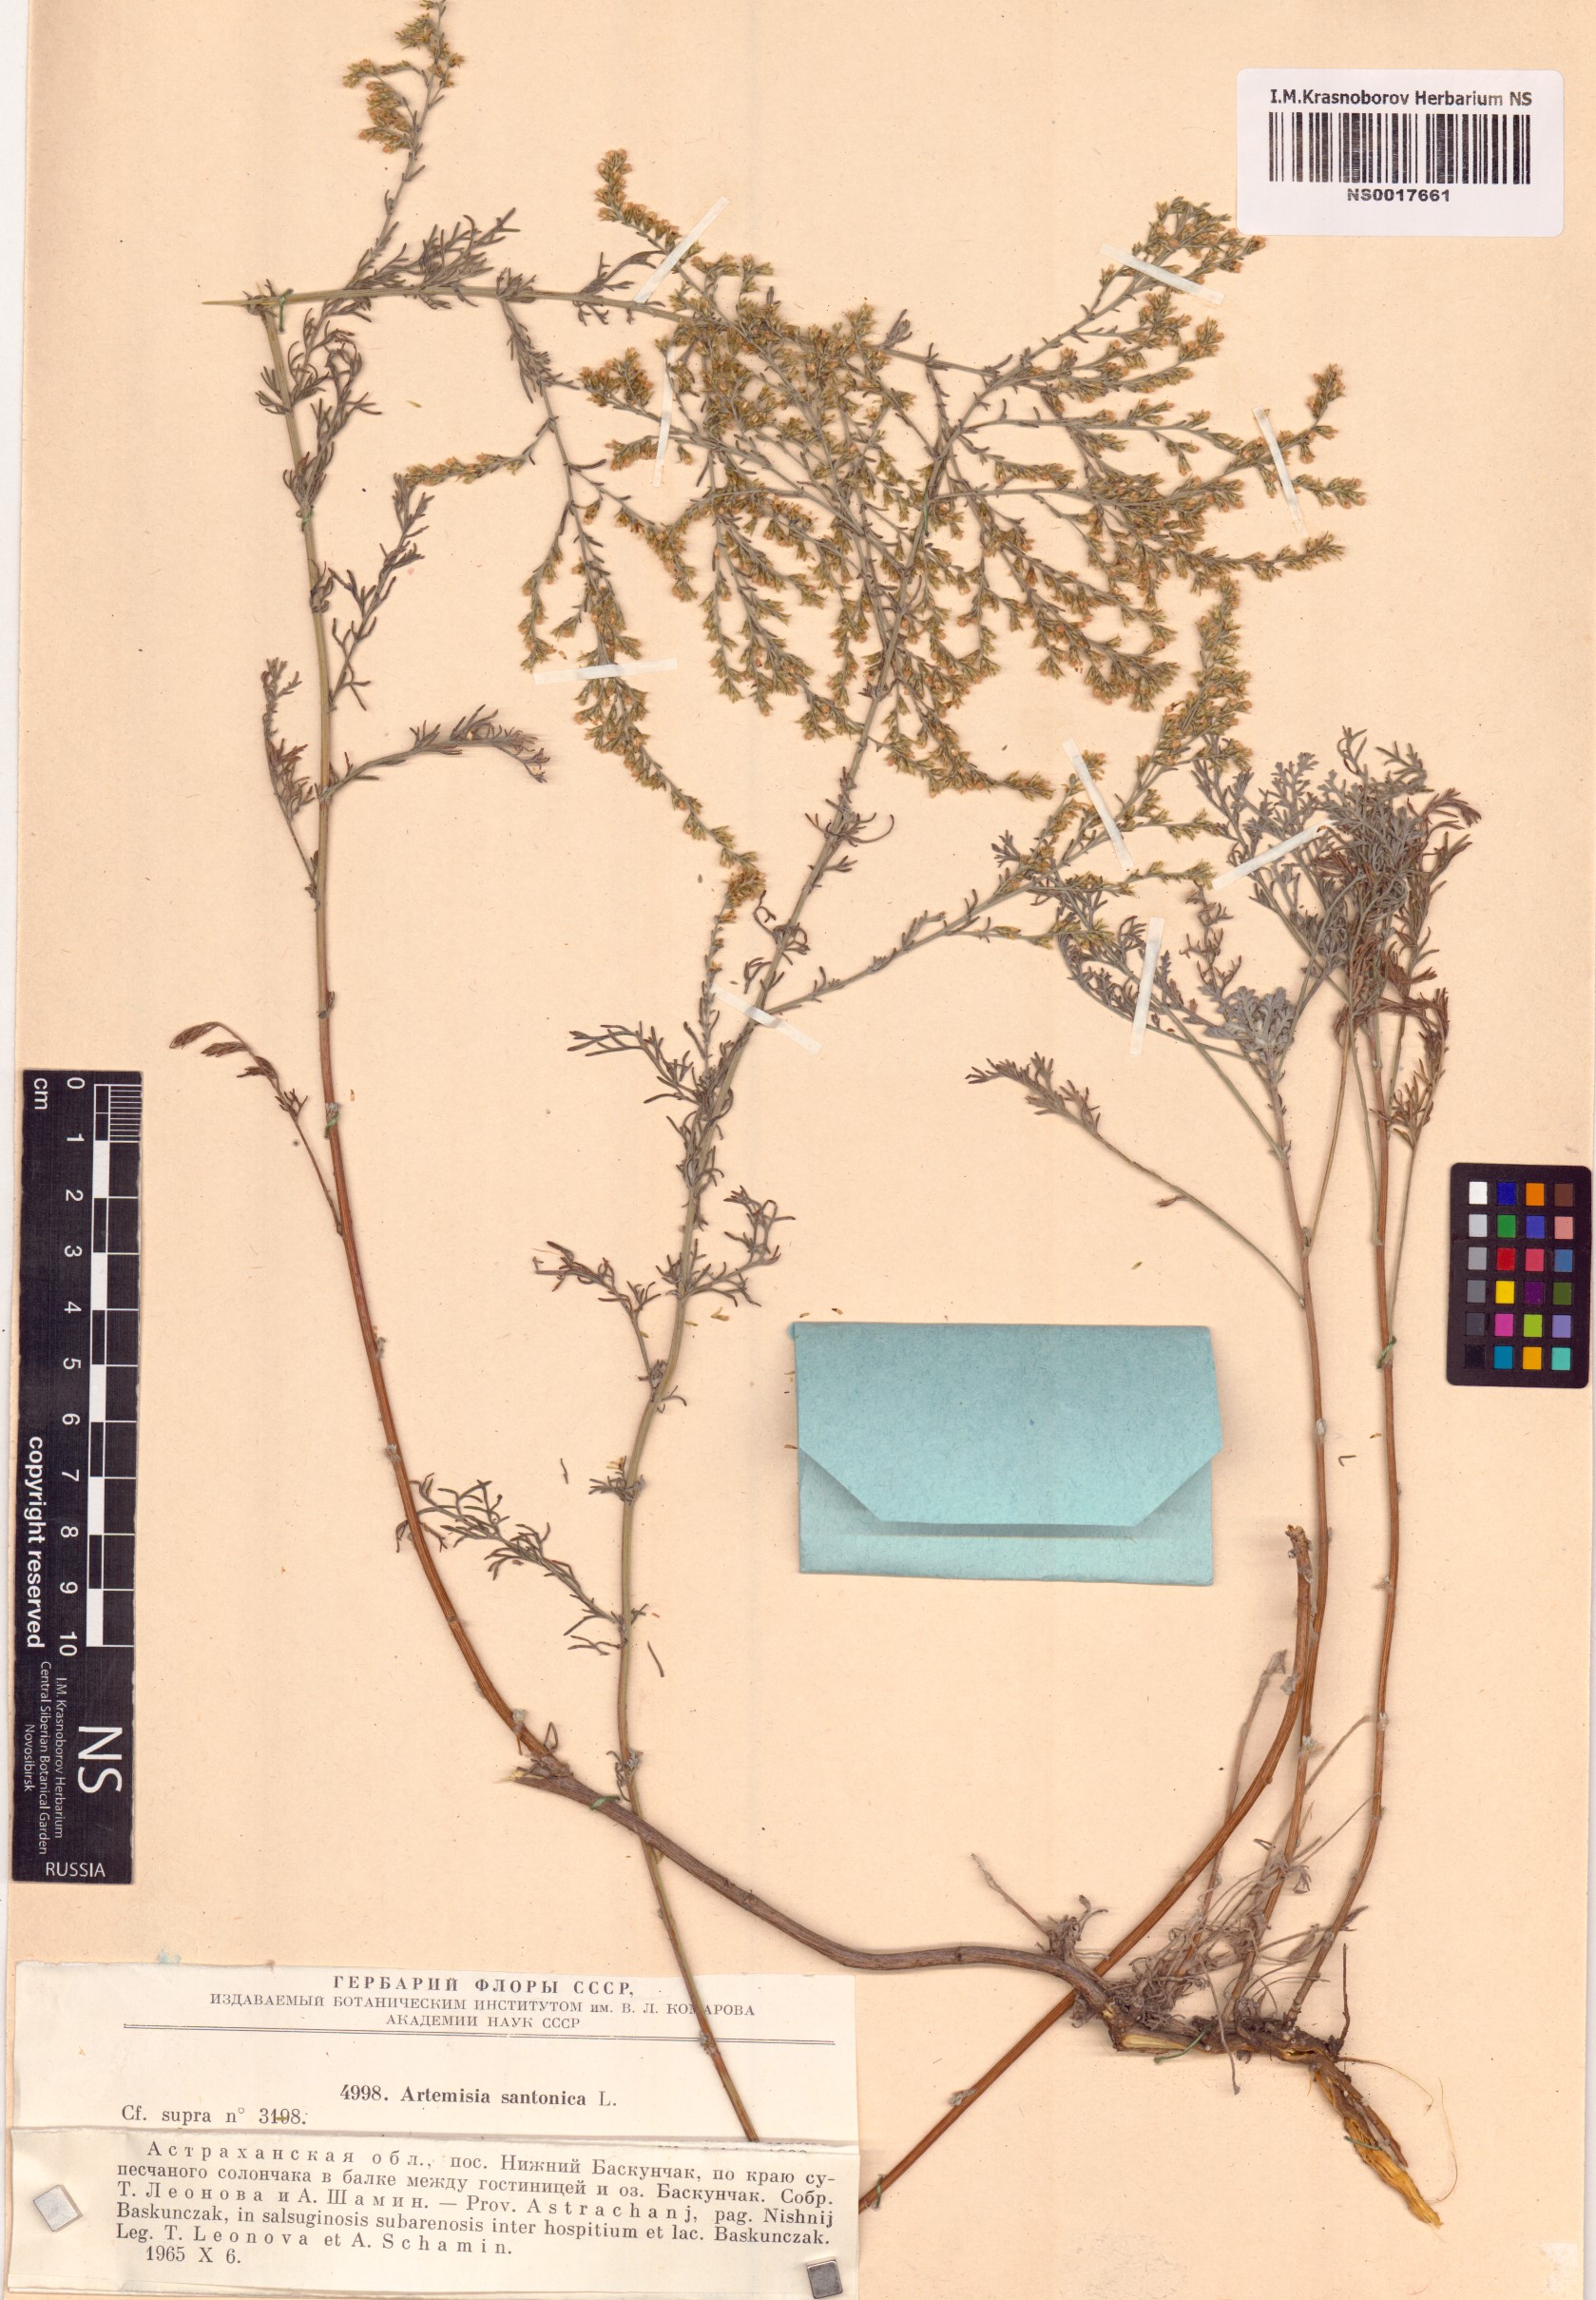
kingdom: Plantae
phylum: Tracheophyta
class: Magnoliopsida
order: Asterales
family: Asteraceae
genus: Artemisia
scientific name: Artemisia santonicum
